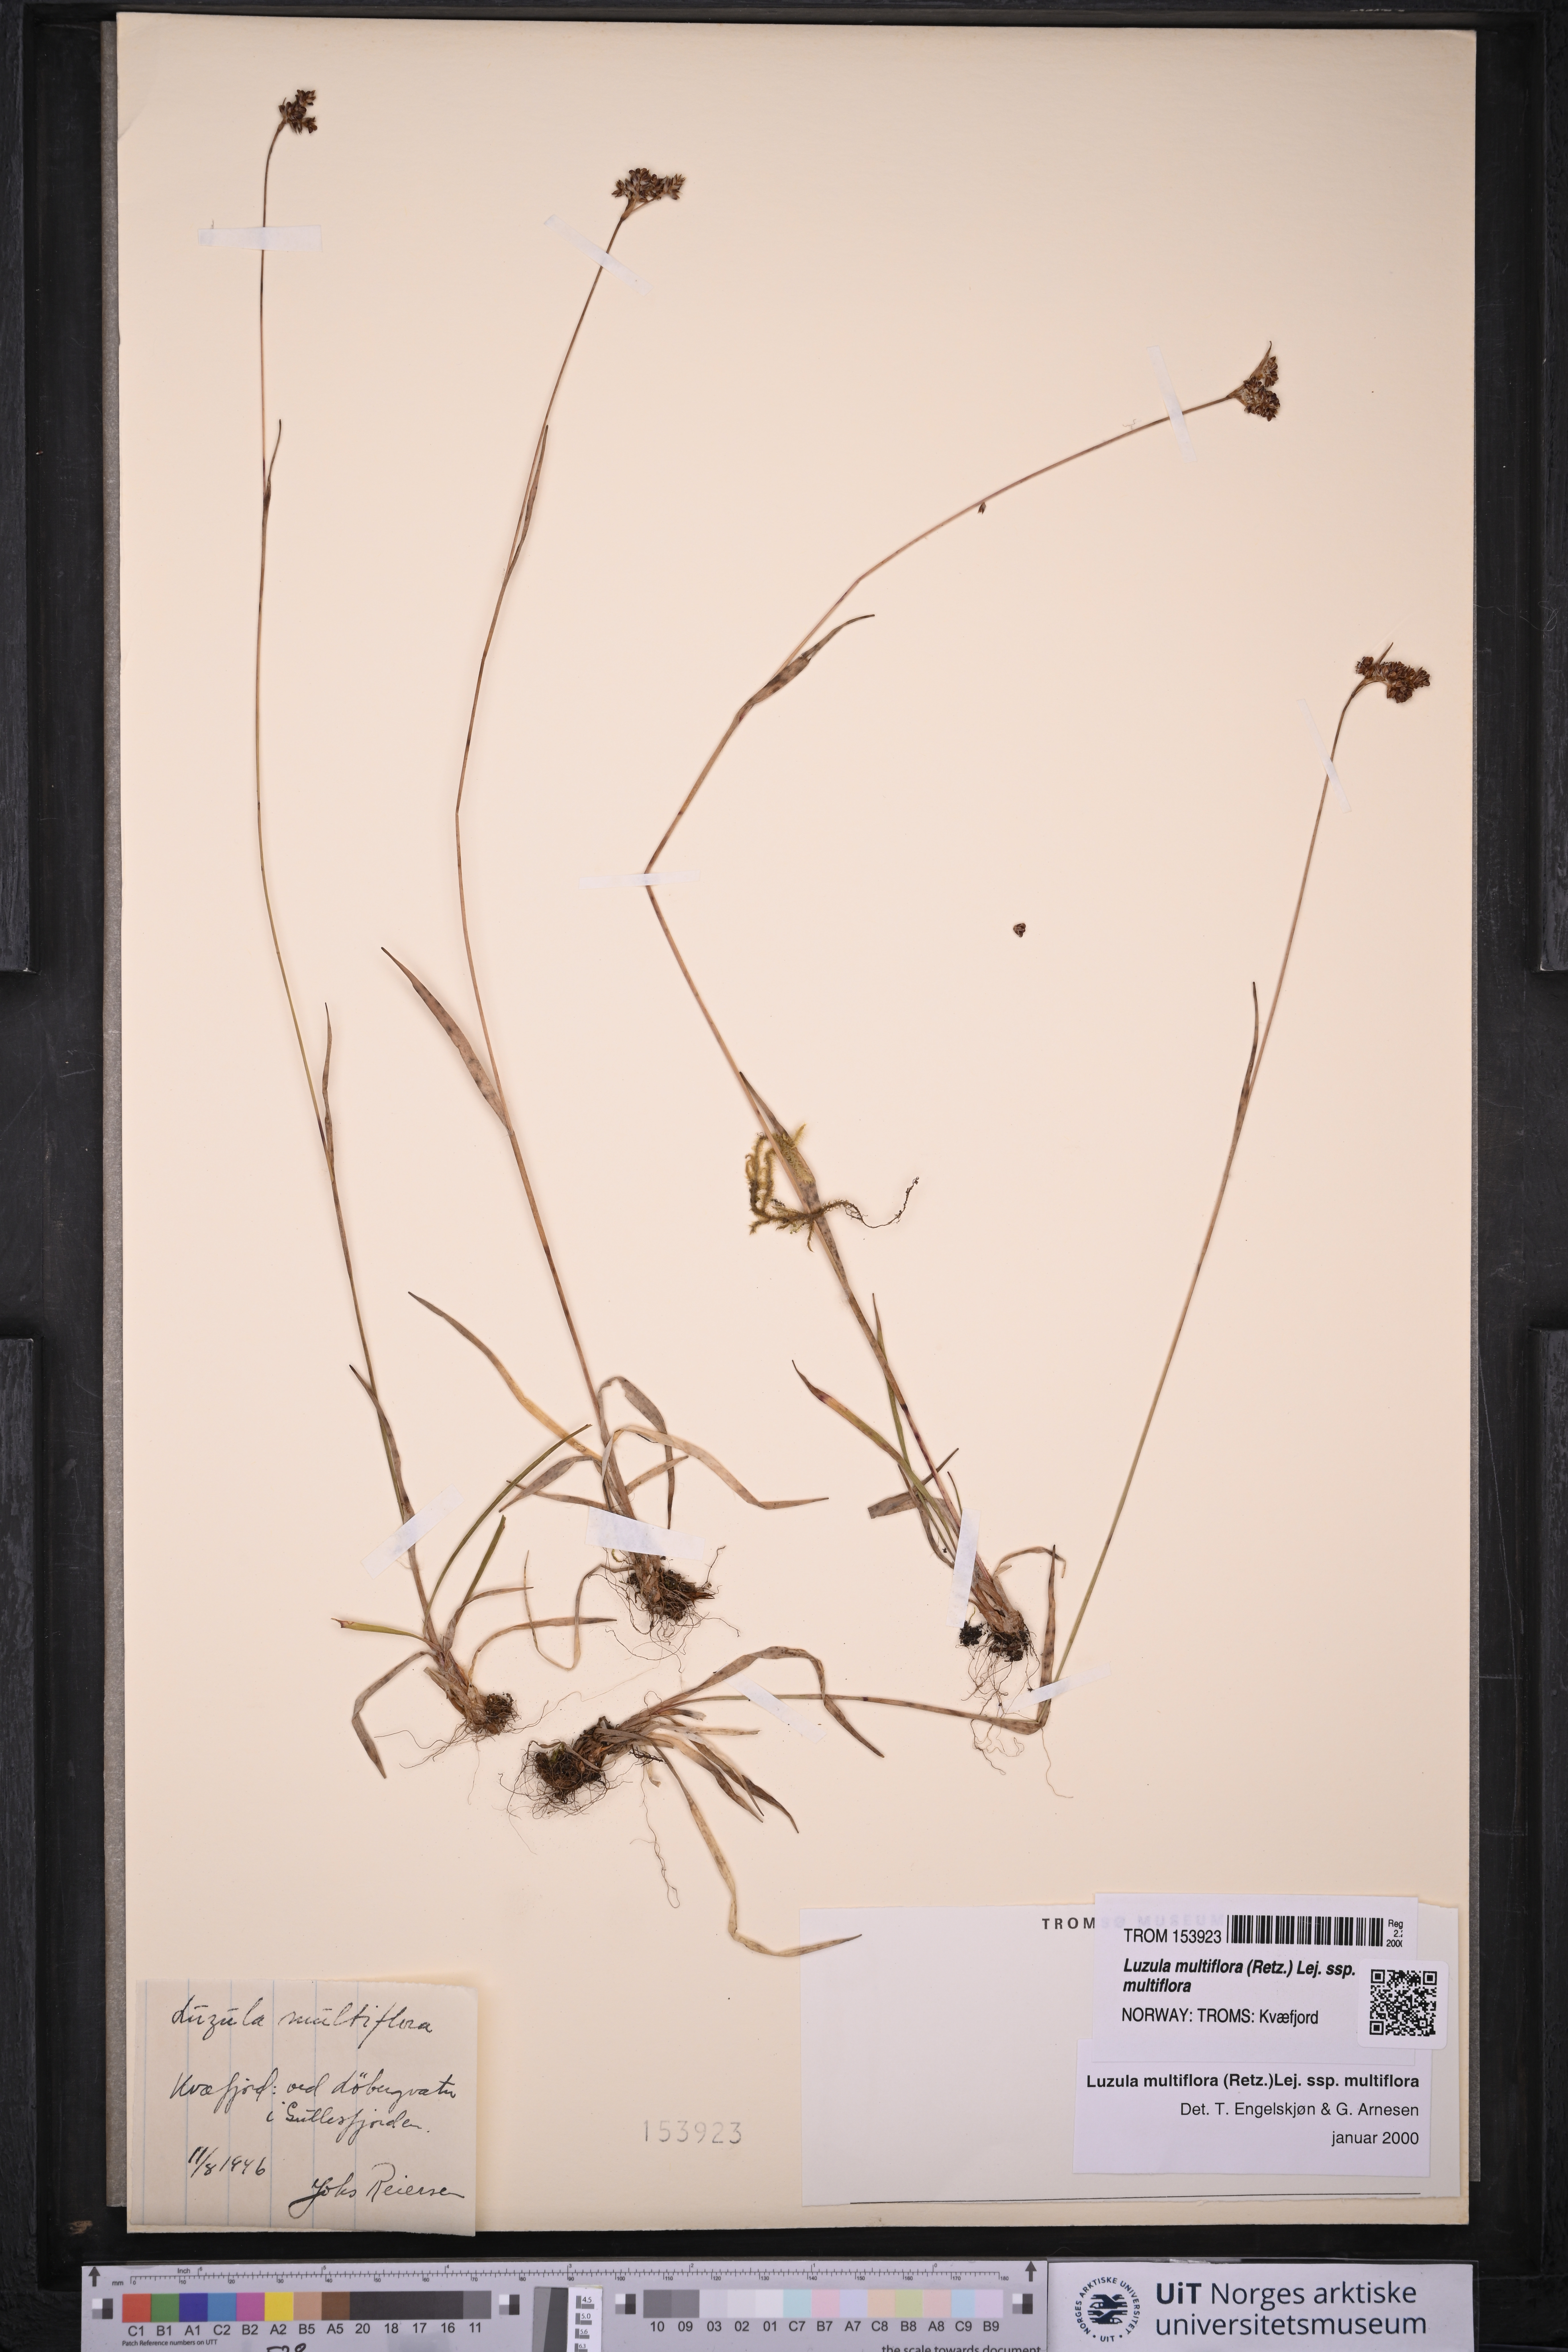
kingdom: Plantae
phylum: Tracheophyta
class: Liliopsida
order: Poales
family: Juncaceae
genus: Luzula
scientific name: Luzula multiflora
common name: Heath wood-rush
